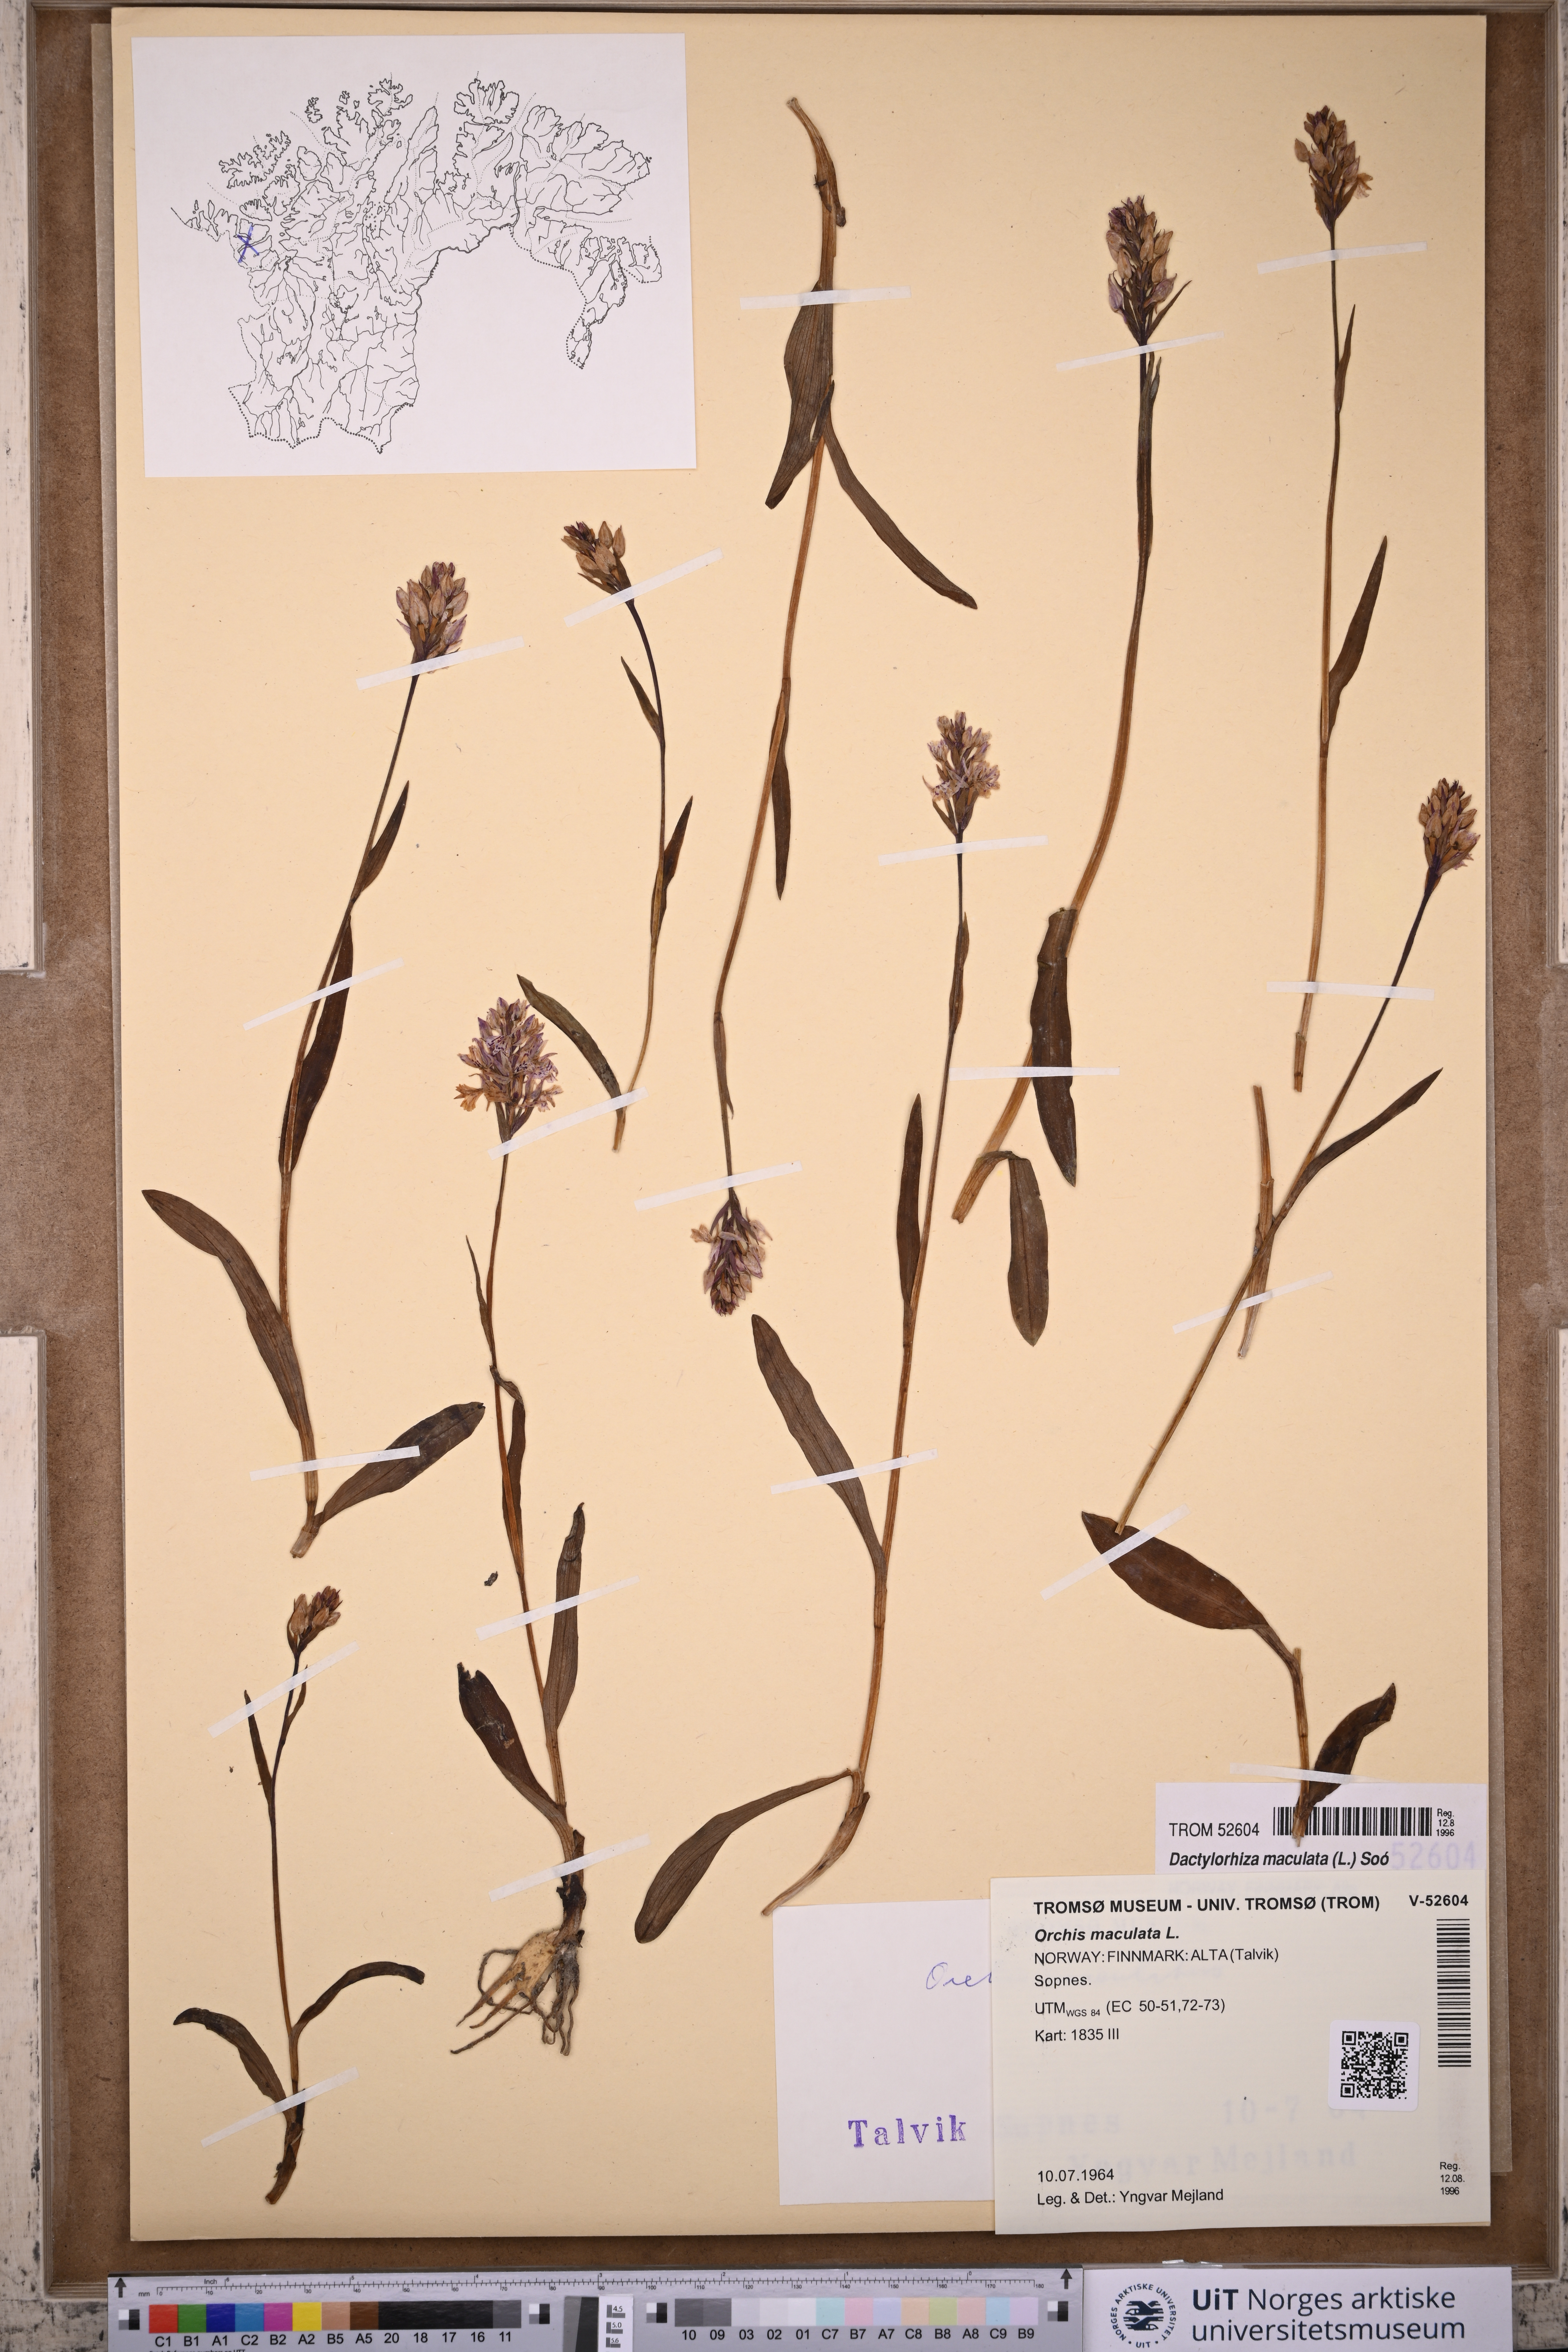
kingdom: Plantae
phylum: Tracheophyta
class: Liliopsida
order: Asparagales
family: Orchidaceae
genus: Dactylorhiza
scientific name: Dactylorhiza maculata
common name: Heath spotted-orchid
